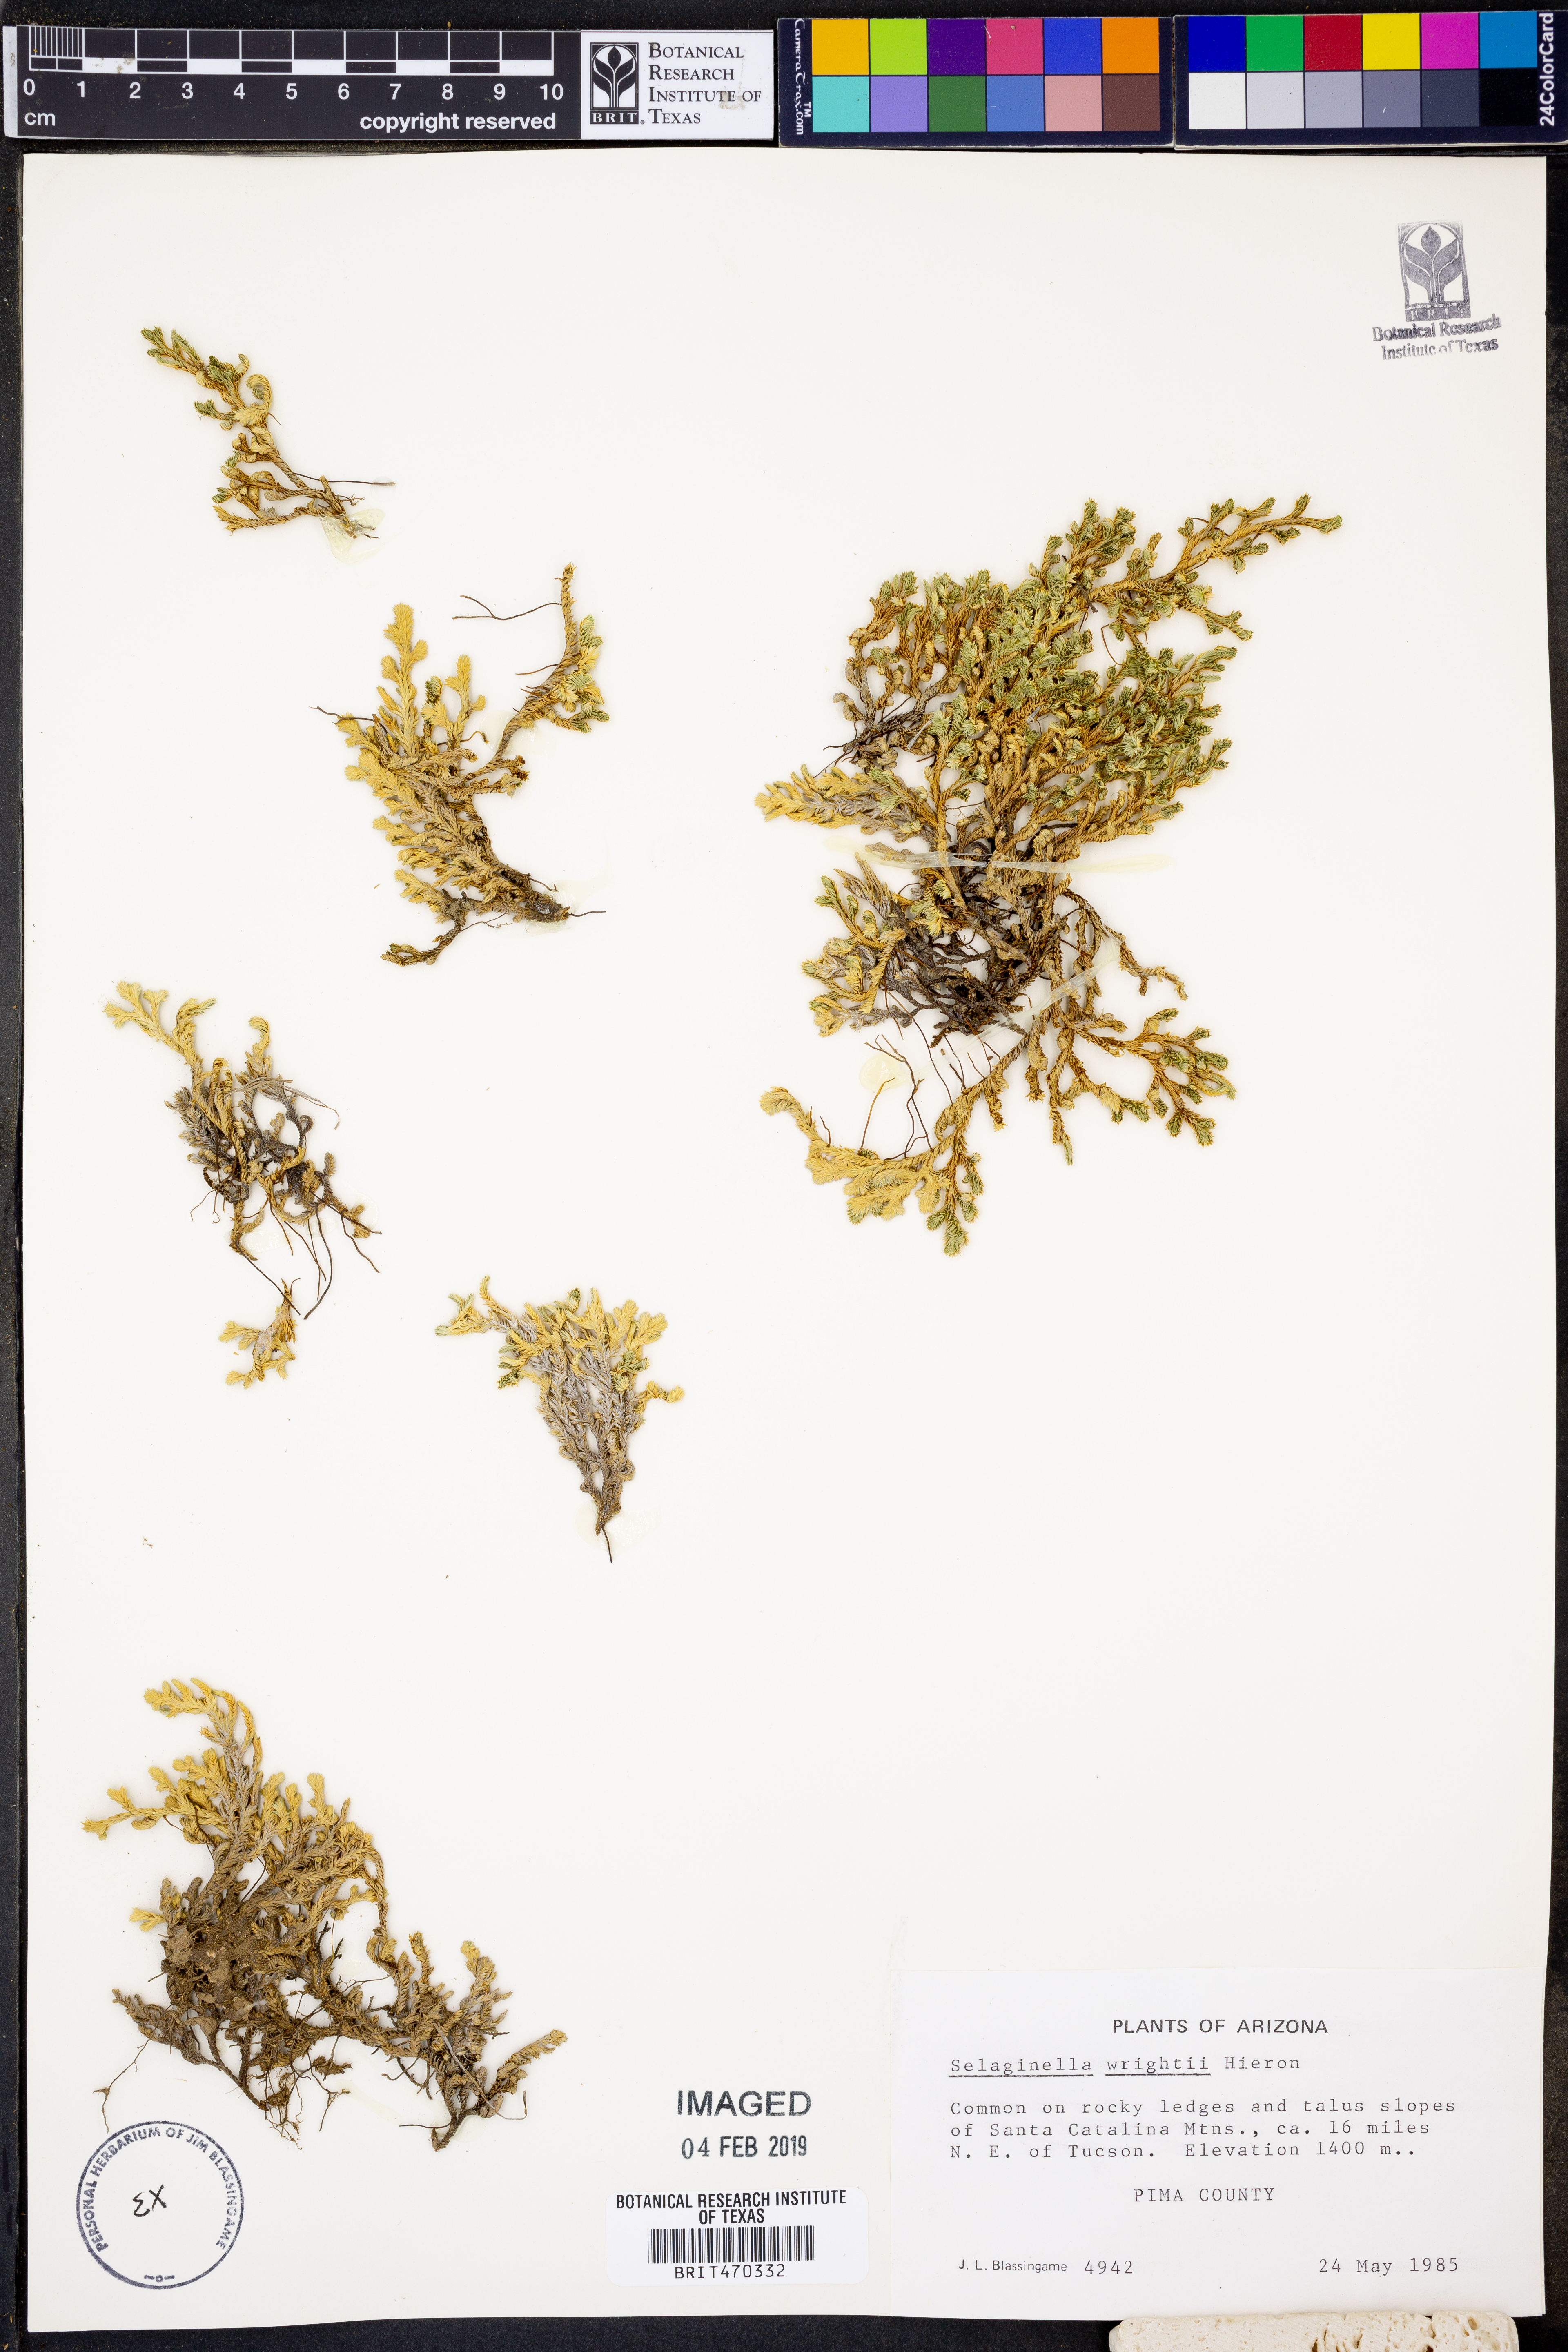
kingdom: Plantae
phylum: Tracheophyta
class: Lycopodiopsida
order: Selaginellales
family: Selaginellaceae
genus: Selaginella
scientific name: Selaginella wrightii
